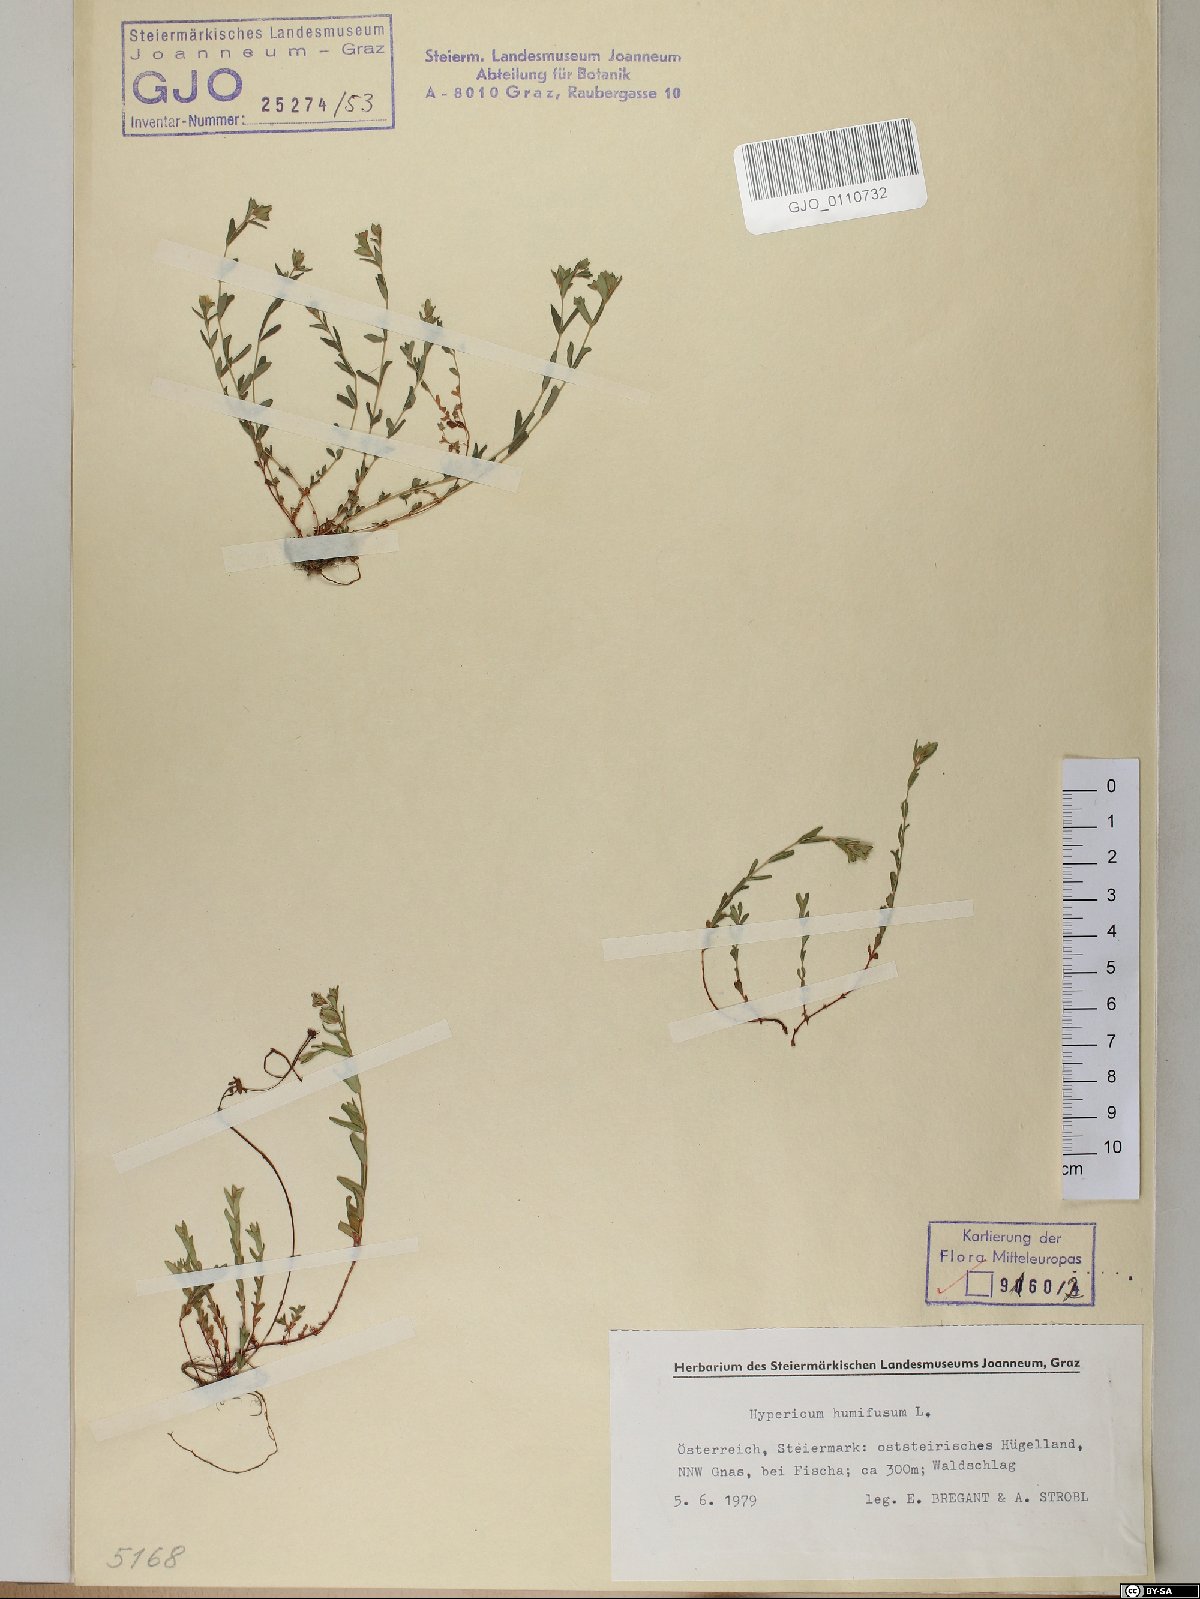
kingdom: Plantae
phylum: Tracheophyta
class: Magnoliopsida
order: Malpighiales
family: Hypericaceae
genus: Hypericum
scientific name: Hypericum humifusum
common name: Trailing st. john's-wort
